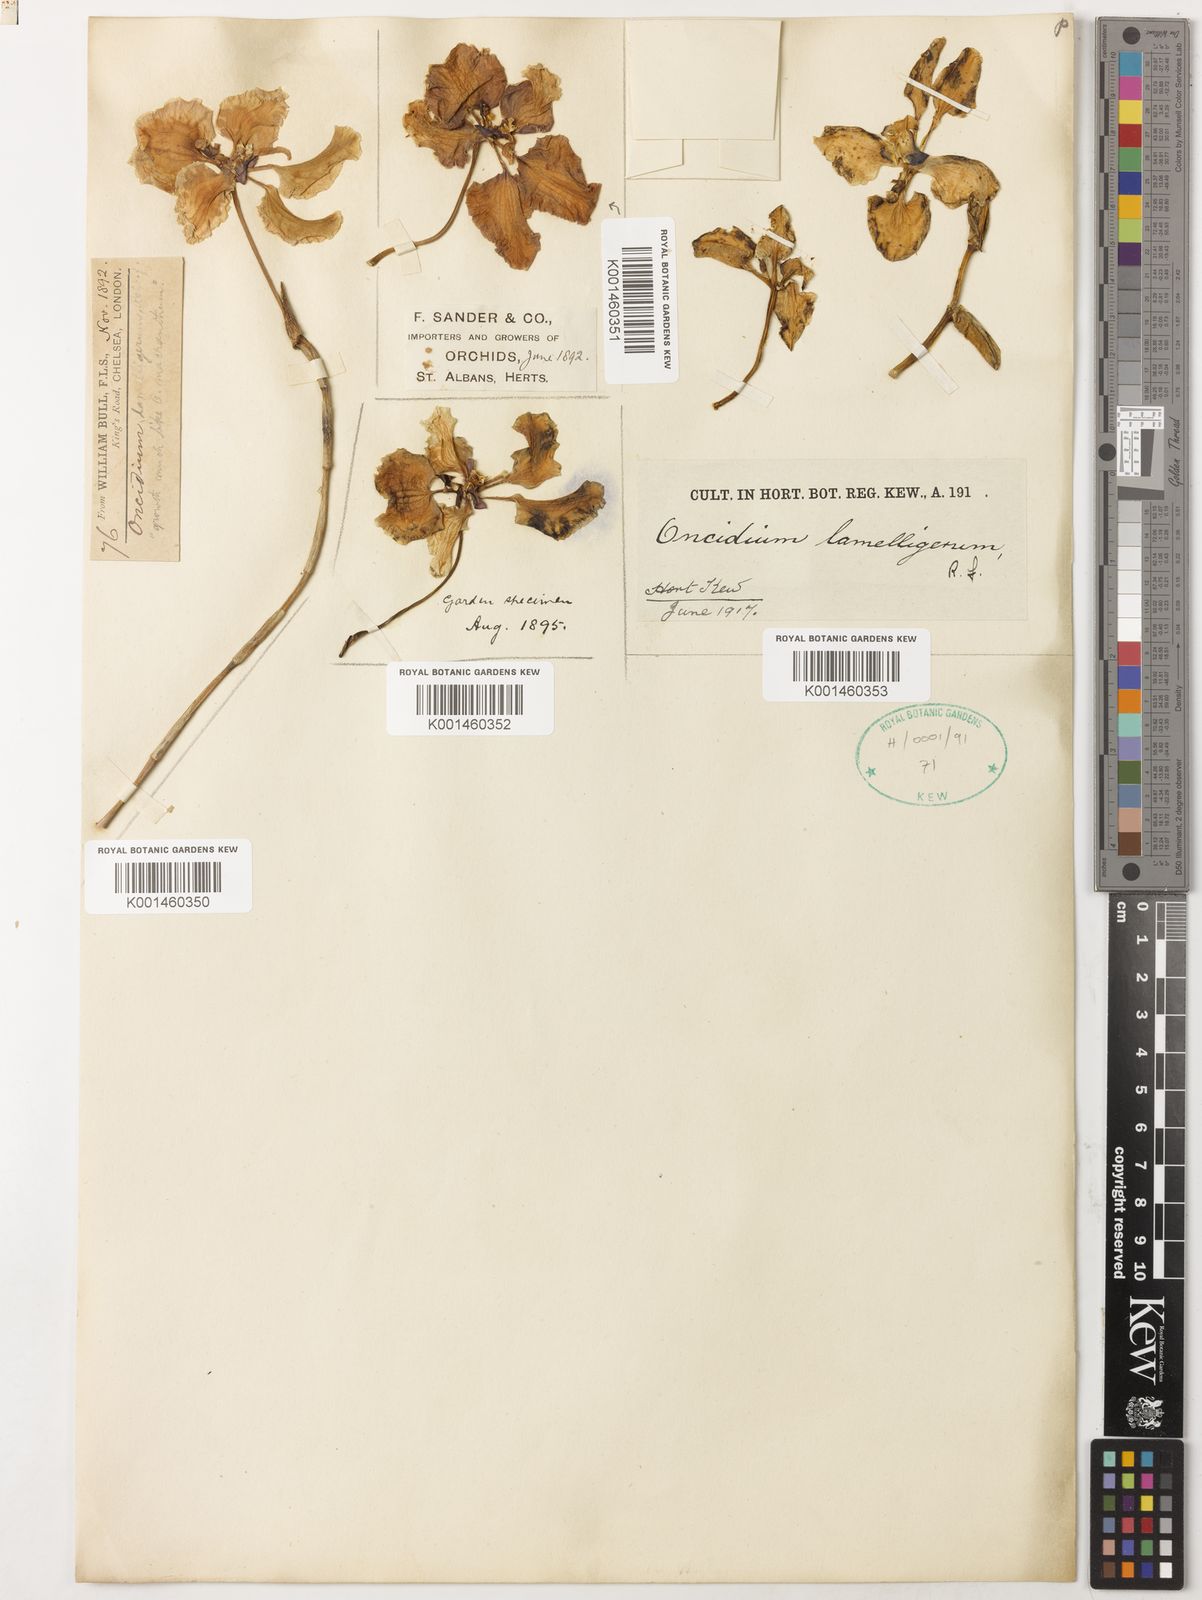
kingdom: Plantae
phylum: Tracheophyta
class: Liliopsida
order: Asparagales
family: Orchidaceae
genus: Cyrtochilum
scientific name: Cyrtochilum lamelligerum
